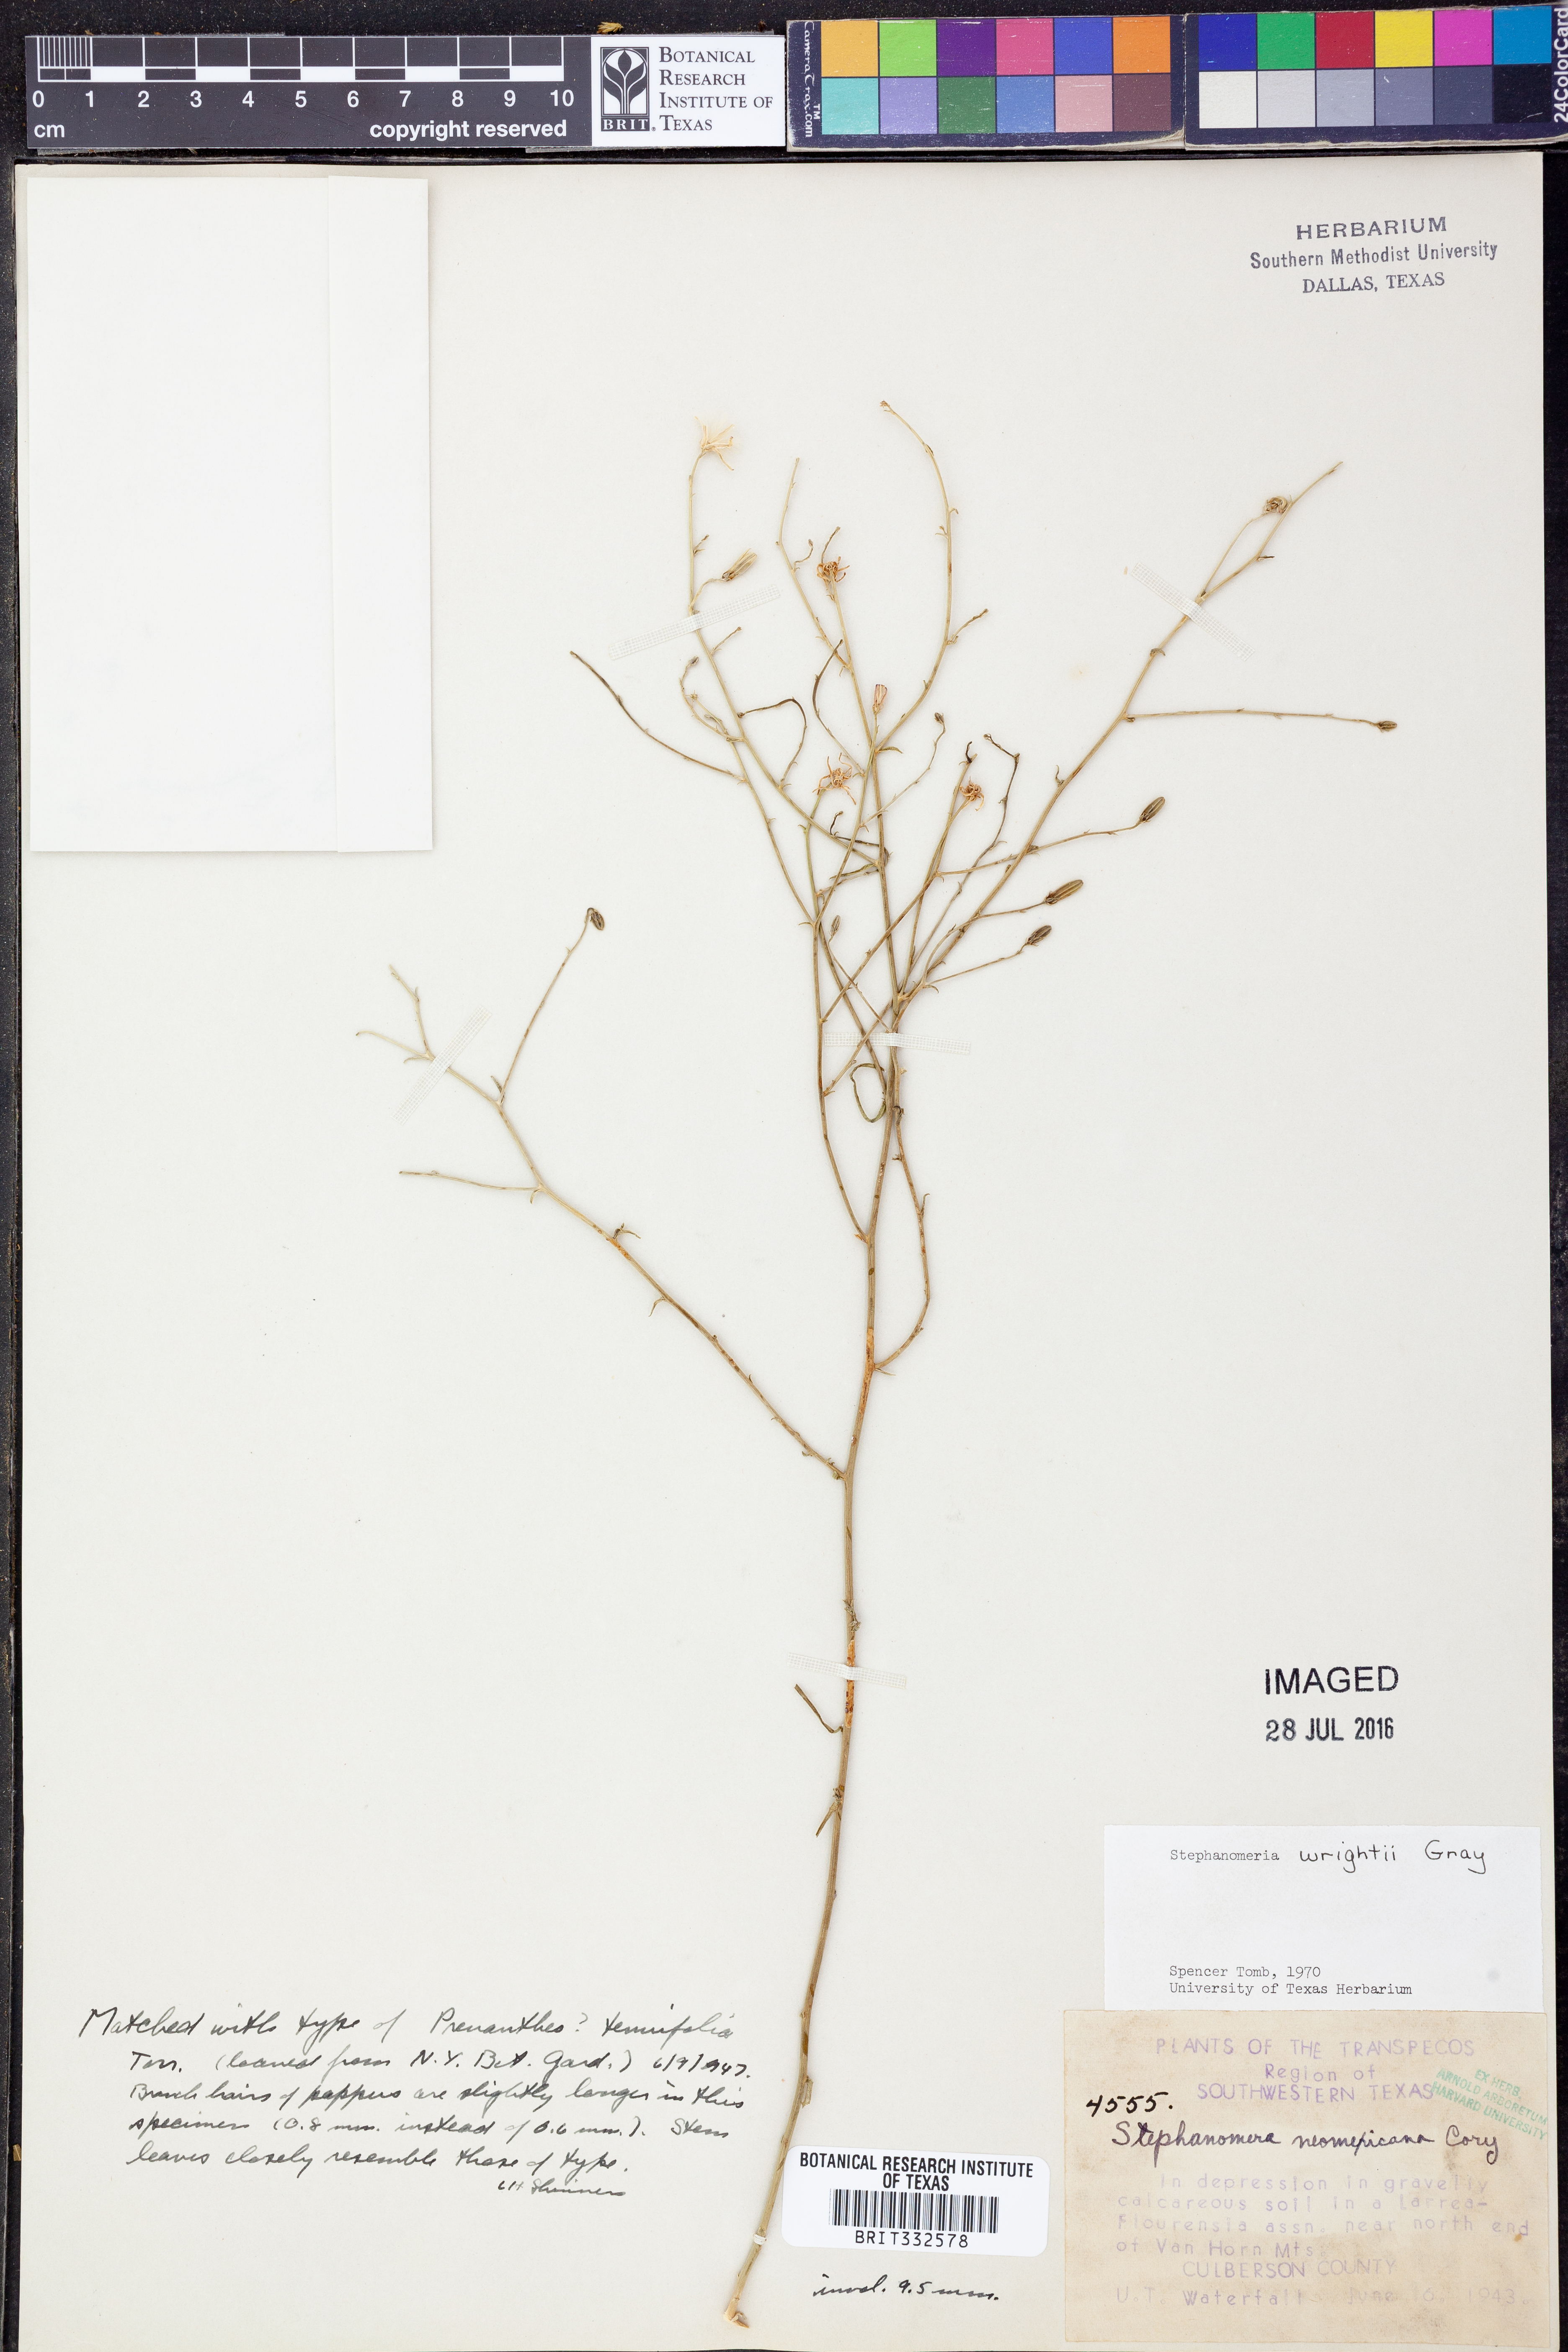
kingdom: Plantae
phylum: Tracheophyta
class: Magnoliopsida
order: Asterales
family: Asteraceae
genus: Stephanomeria
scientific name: Stephanomeria tenuifolia
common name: Slender wirelettuce
